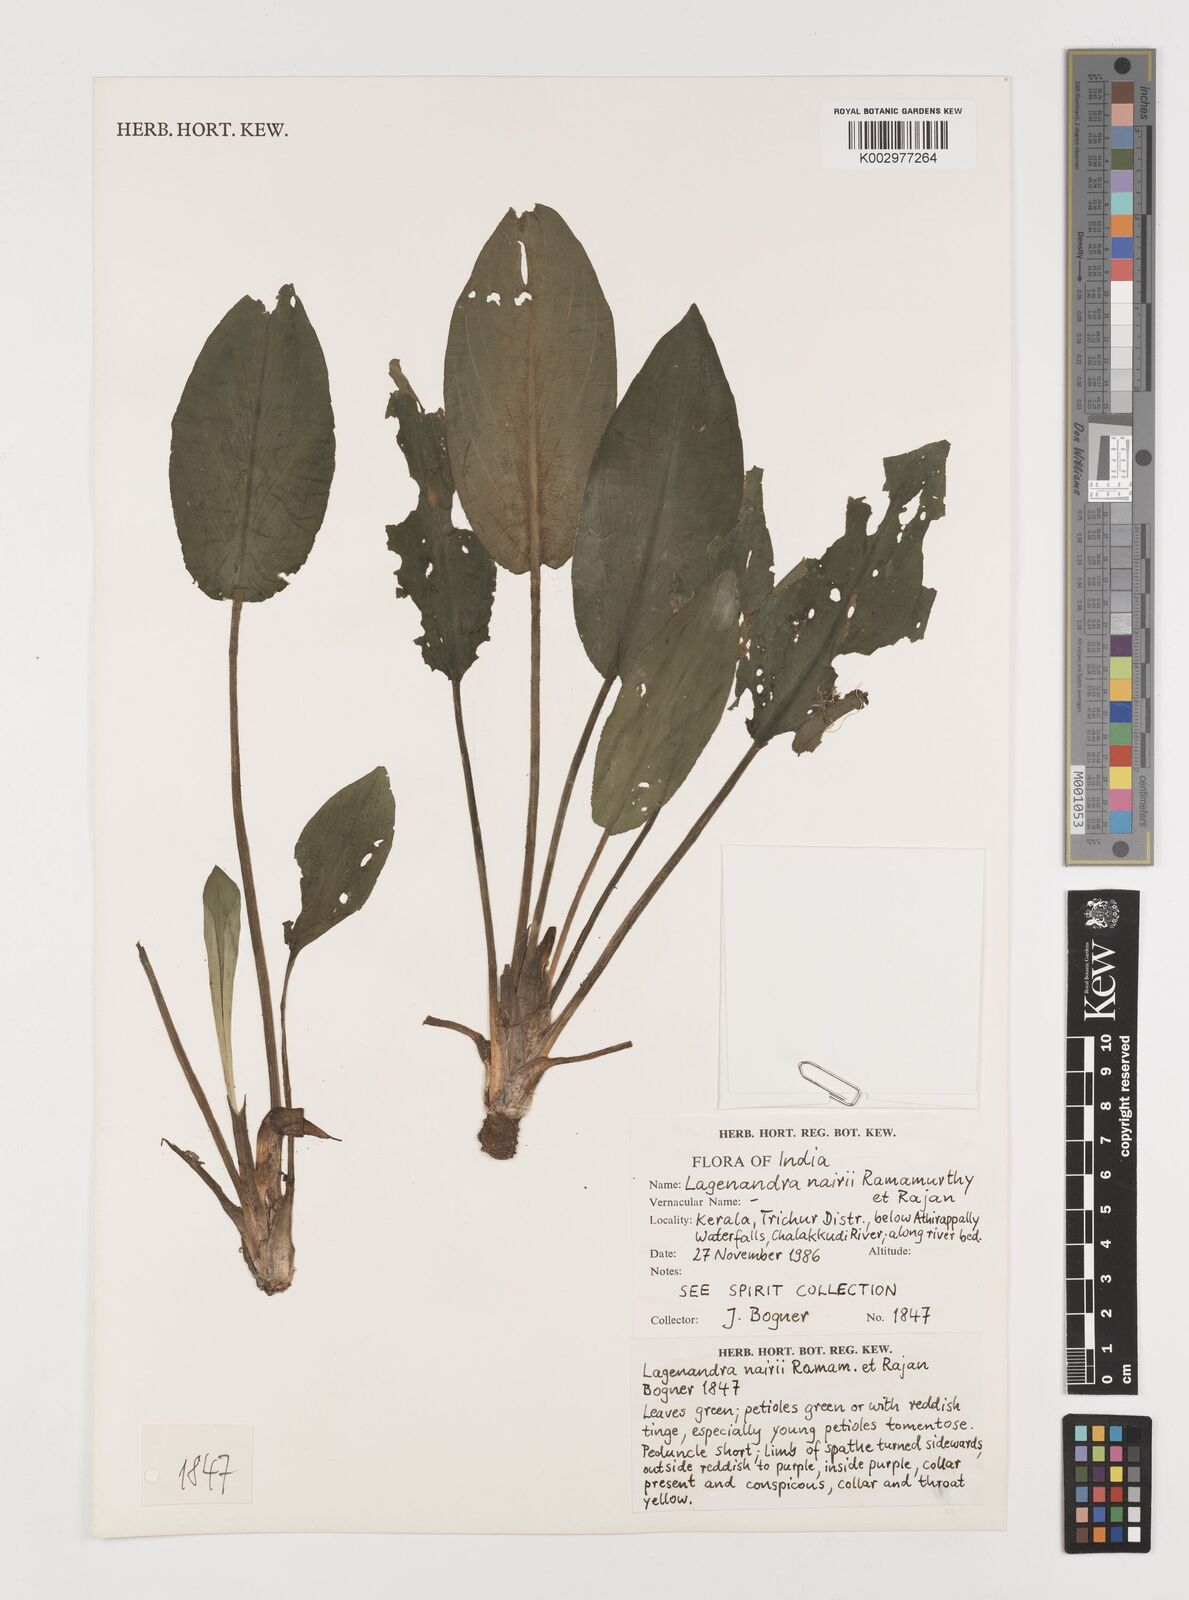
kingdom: Plantae
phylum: Tracheophyta
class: Liliopsida
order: Alismatales
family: Araceae
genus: Lagenandra
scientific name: Lagenandra nairii
